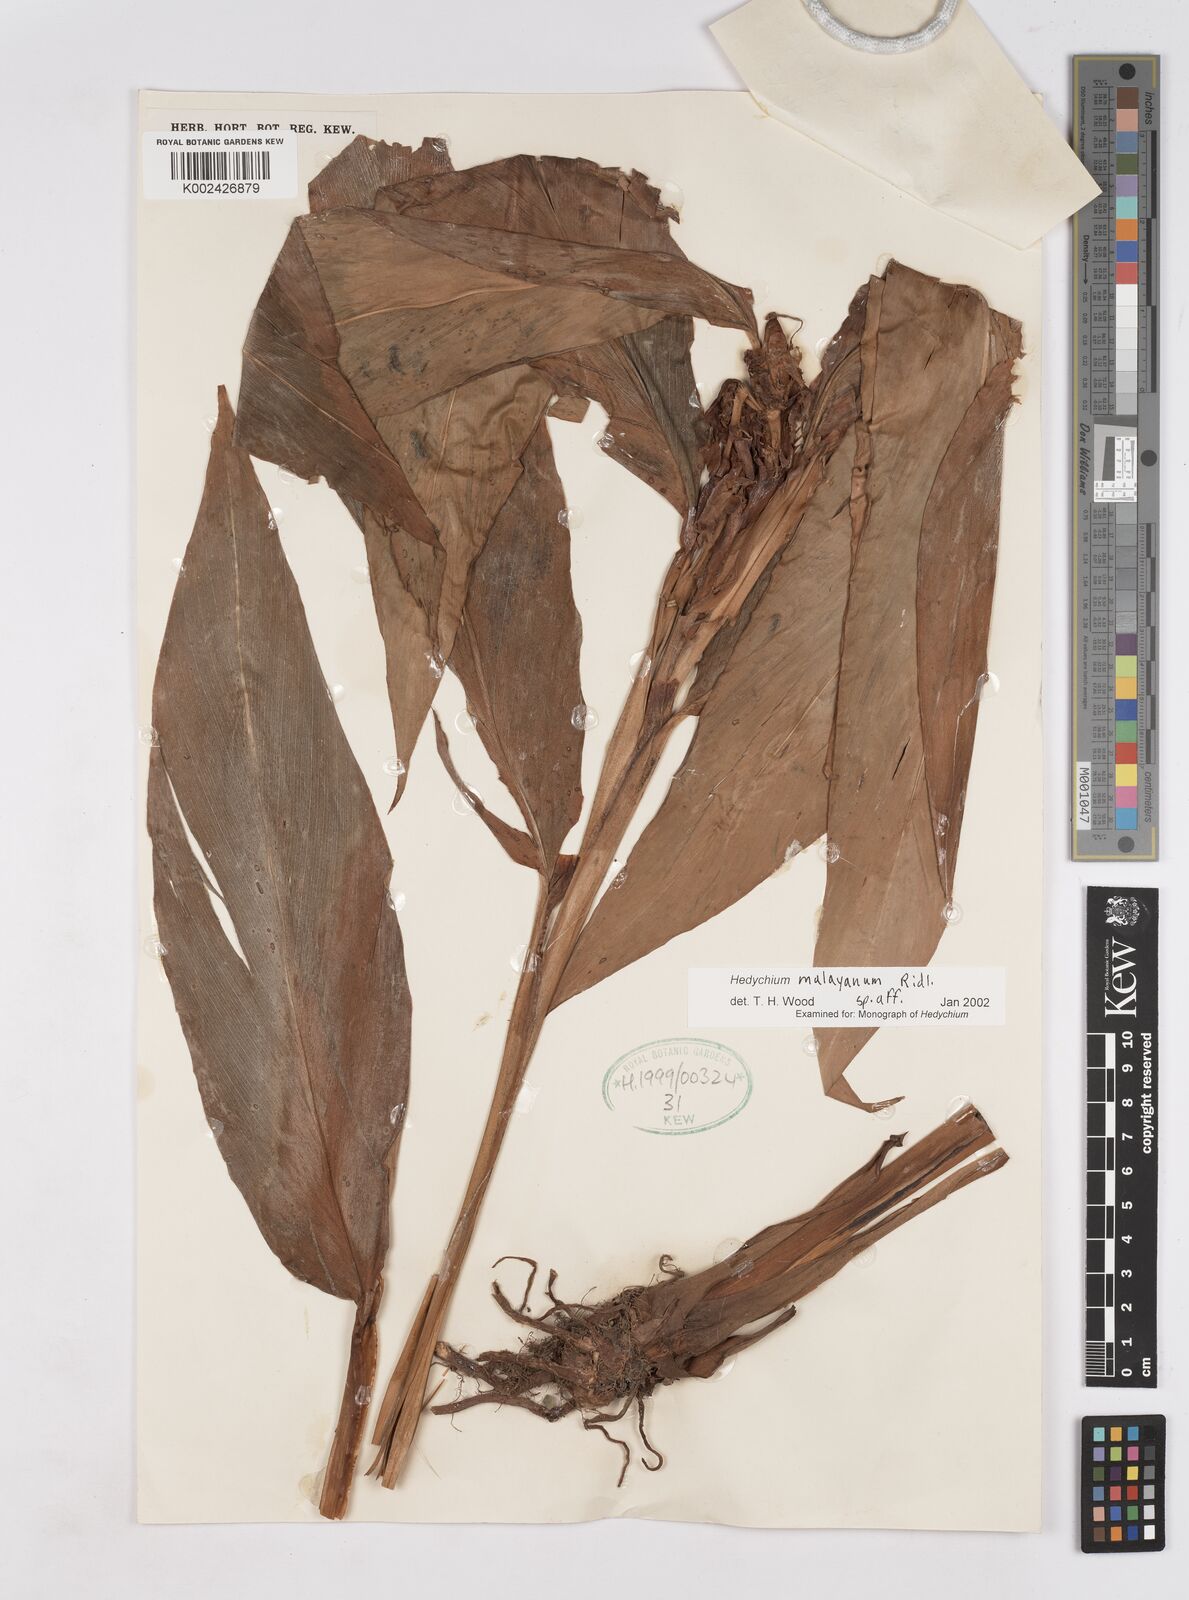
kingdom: Plantae
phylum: Tracheophyta
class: Liliopsida
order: Zingiberales
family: Zingiberaceae
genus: Hedychium
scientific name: Hedychium malayanum
